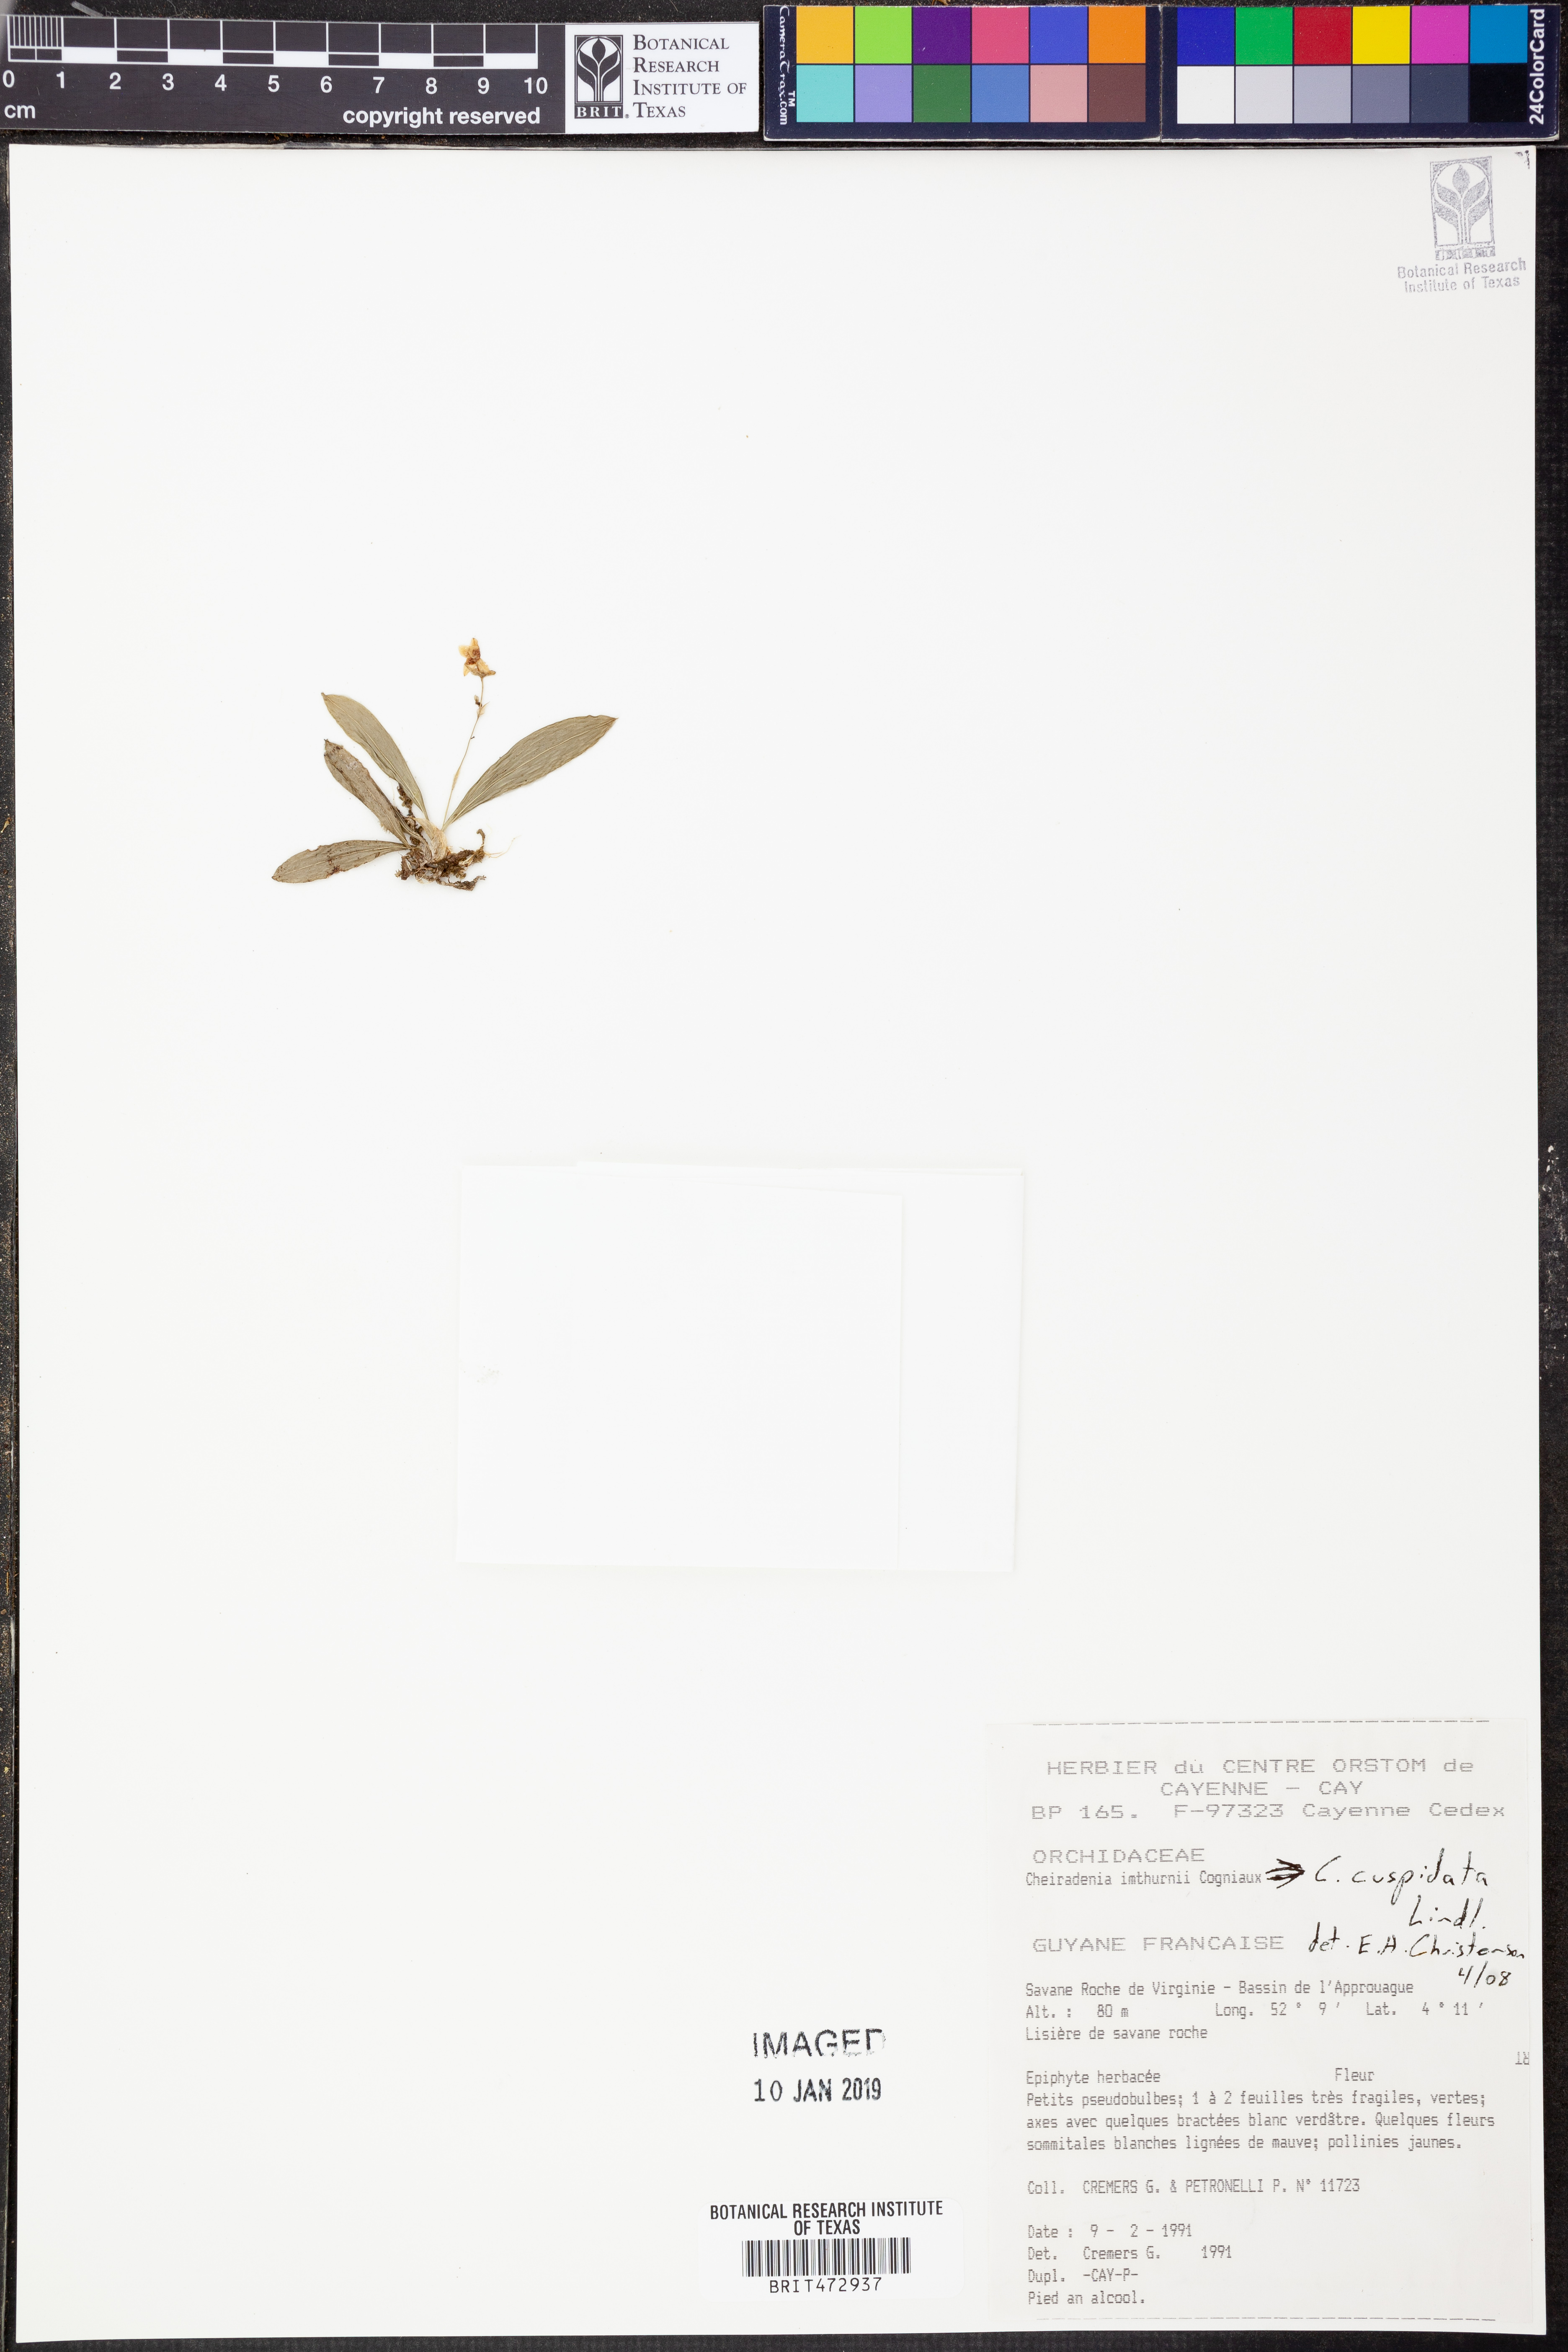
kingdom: Plantae
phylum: Tracheophyta
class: Liliopsida
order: Asparagales
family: Orchidaceae
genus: Cheiradenia
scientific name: Cheiradenia cuspidata
